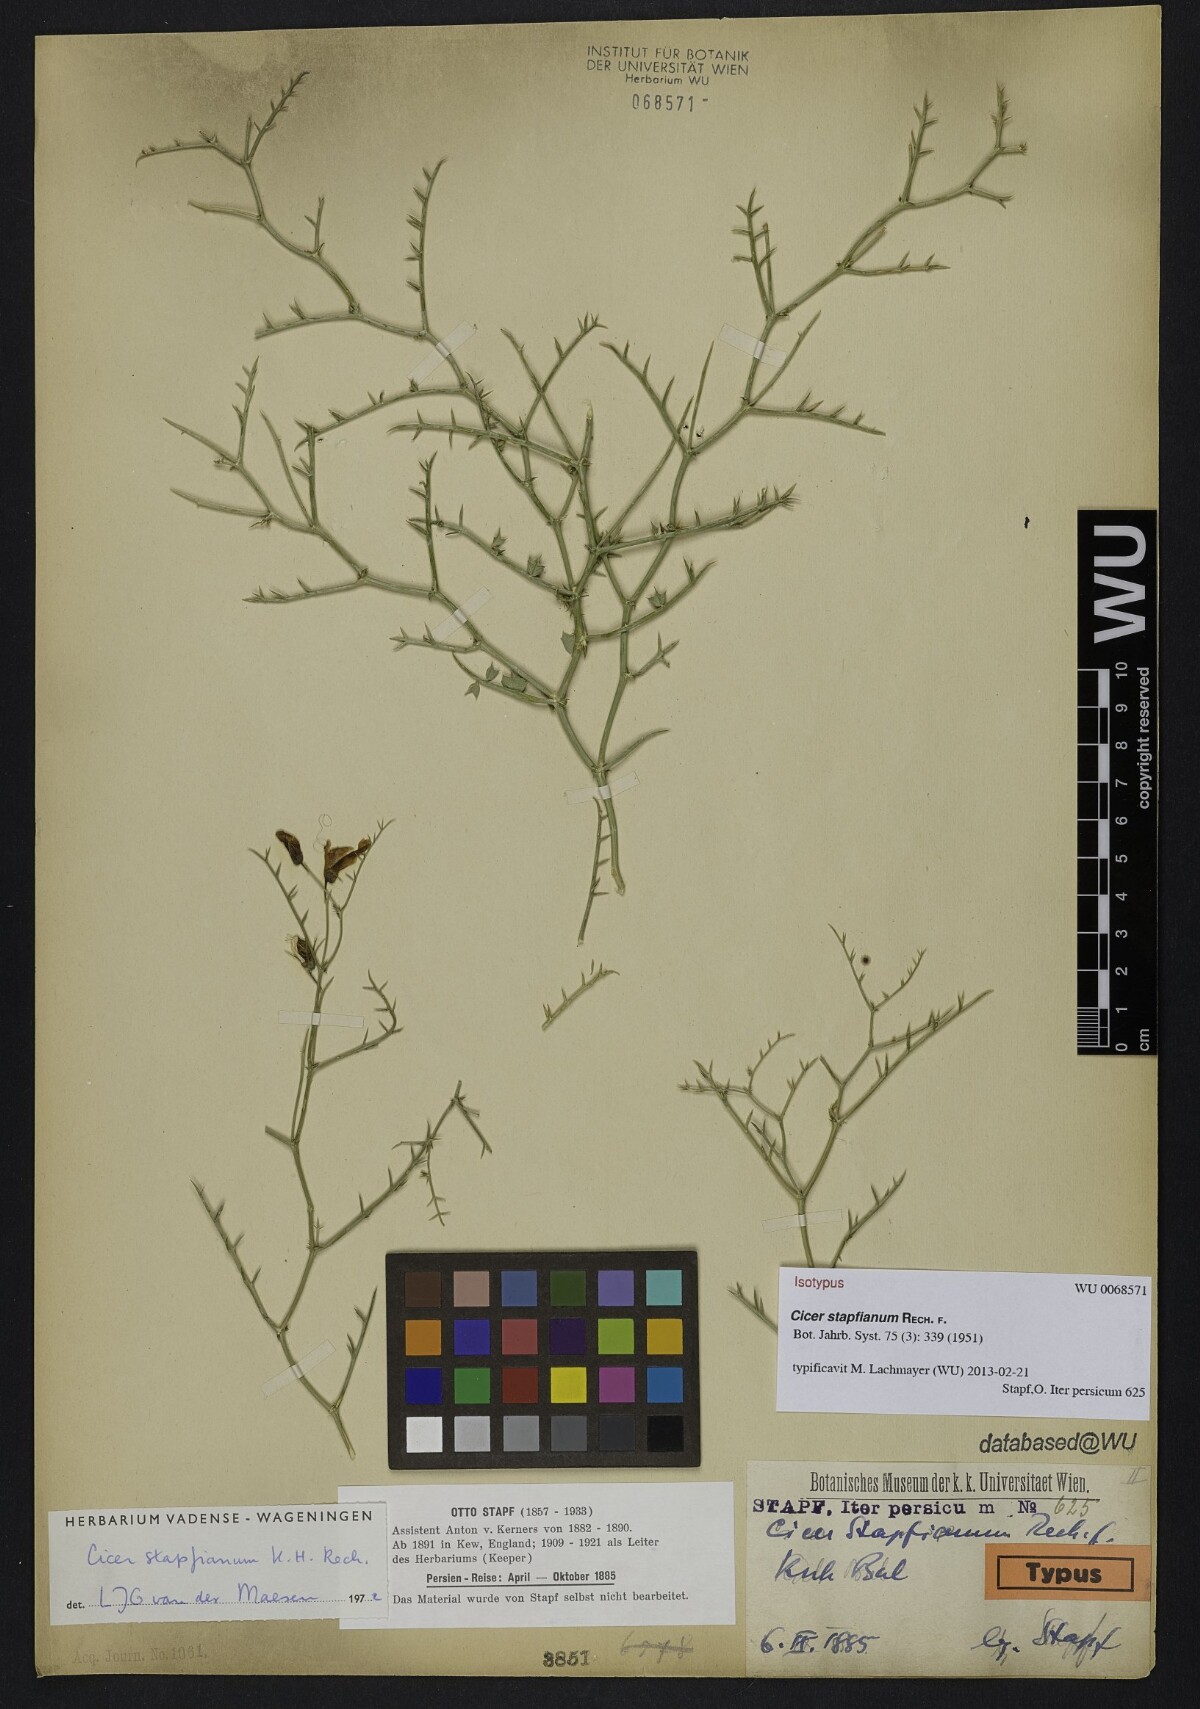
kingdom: Plantae
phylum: Tracheophyta
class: Magnoliopsida
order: Fabales
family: Fabaceae
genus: Cicer
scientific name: Cicer stapfianum
